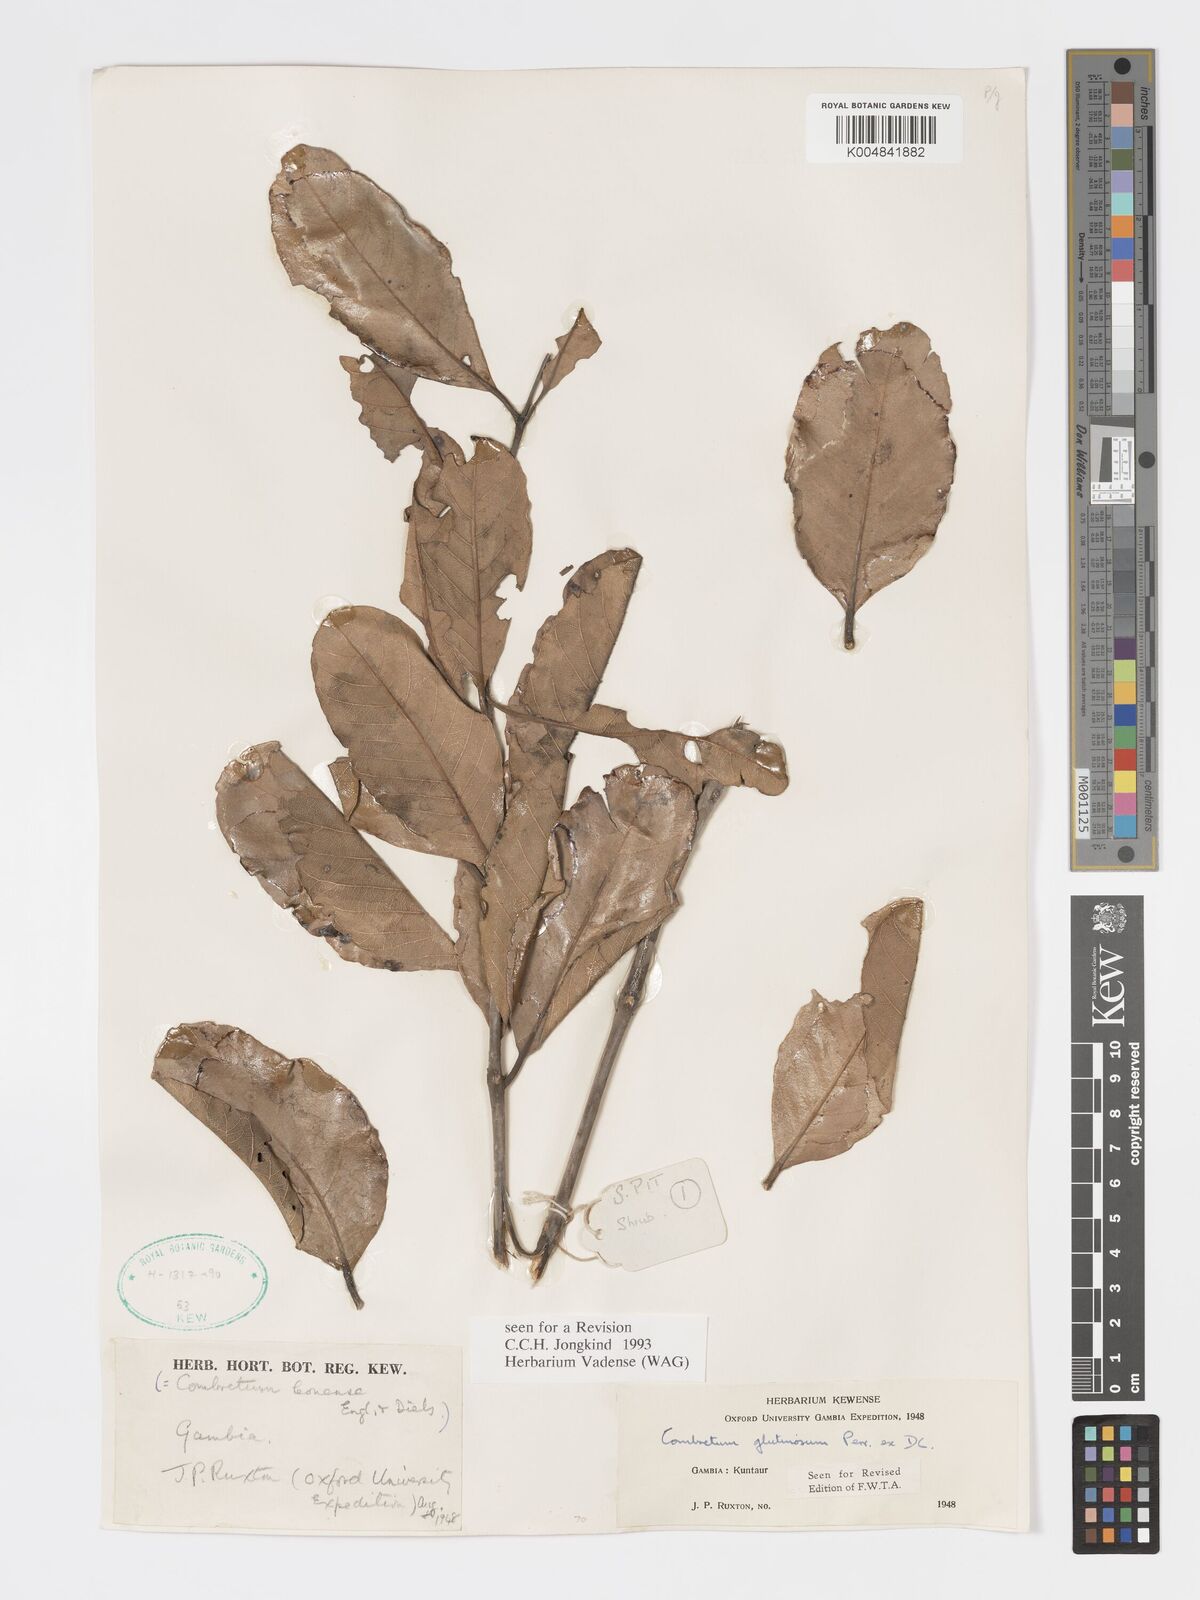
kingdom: Plantae
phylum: Tracheophyta
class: Magnoliopsida
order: Myrtales
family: Combretaceae
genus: Combretum
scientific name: Combretum
